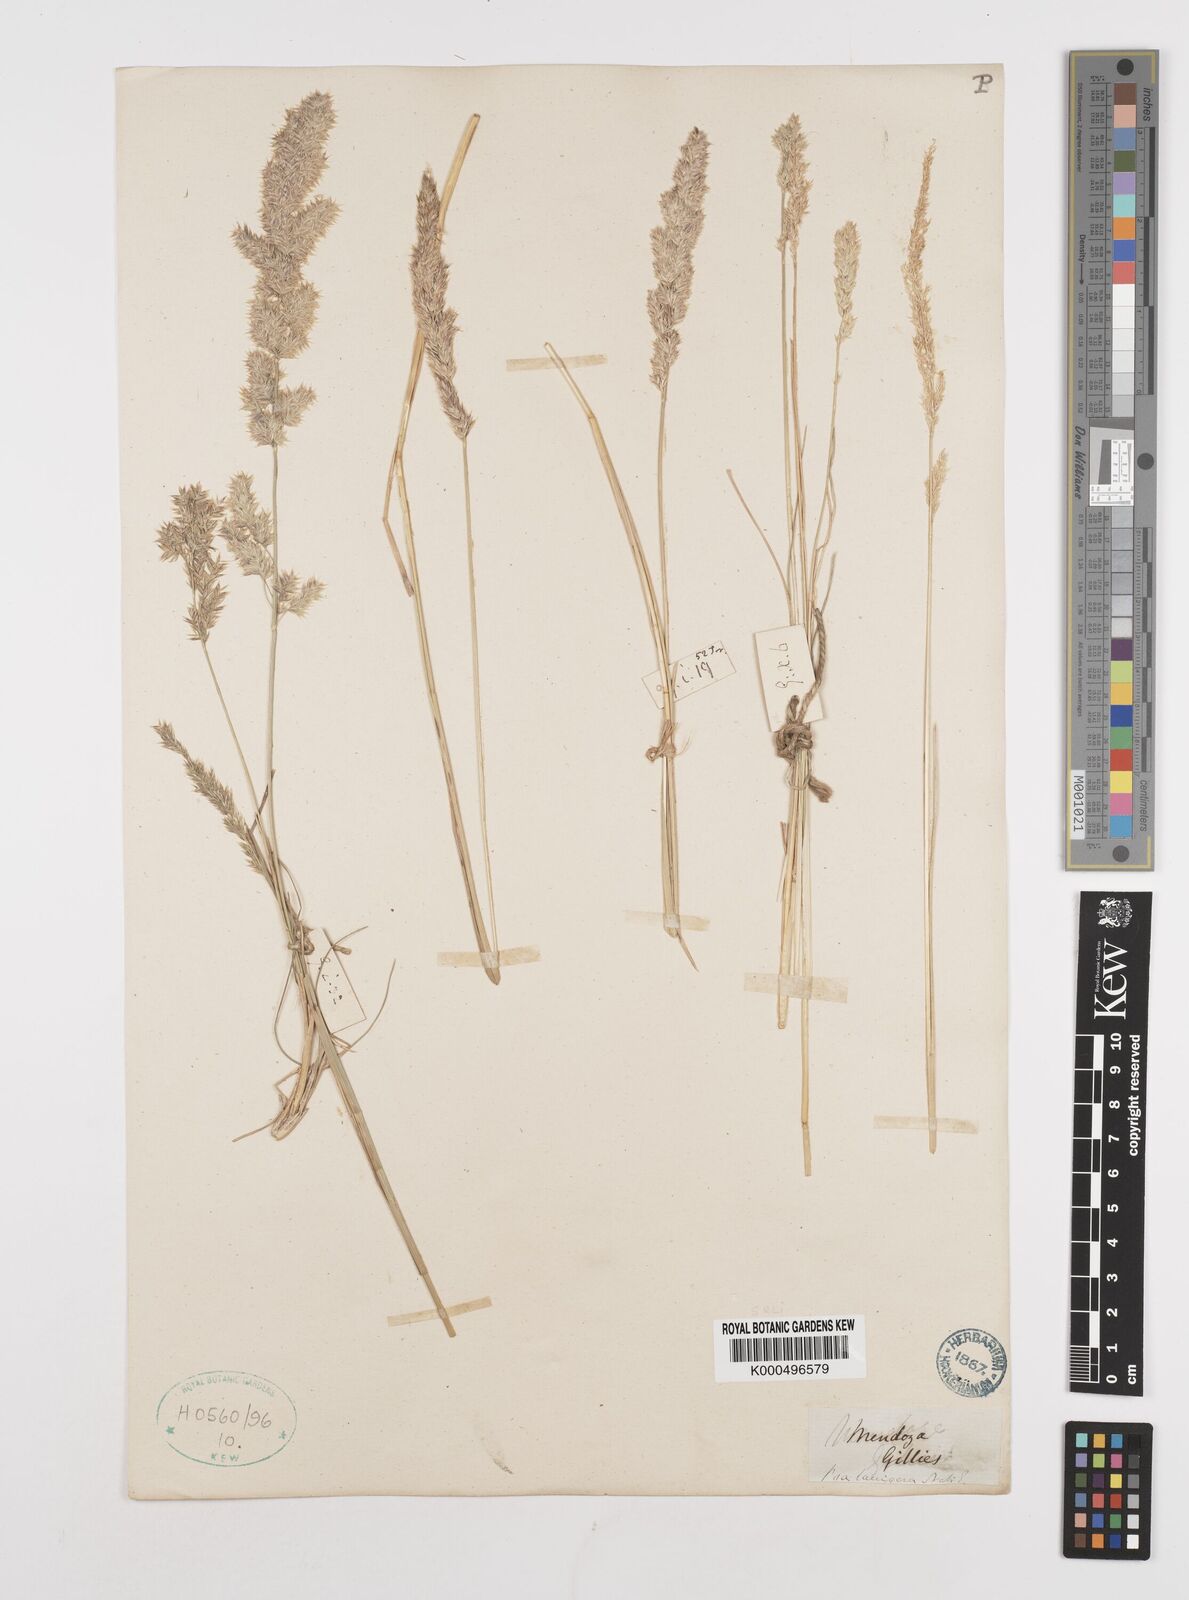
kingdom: Plantae
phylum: Tracheophyta
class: Liliopsida
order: Poales
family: Poaceae
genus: Poa
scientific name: Poa lanigera
